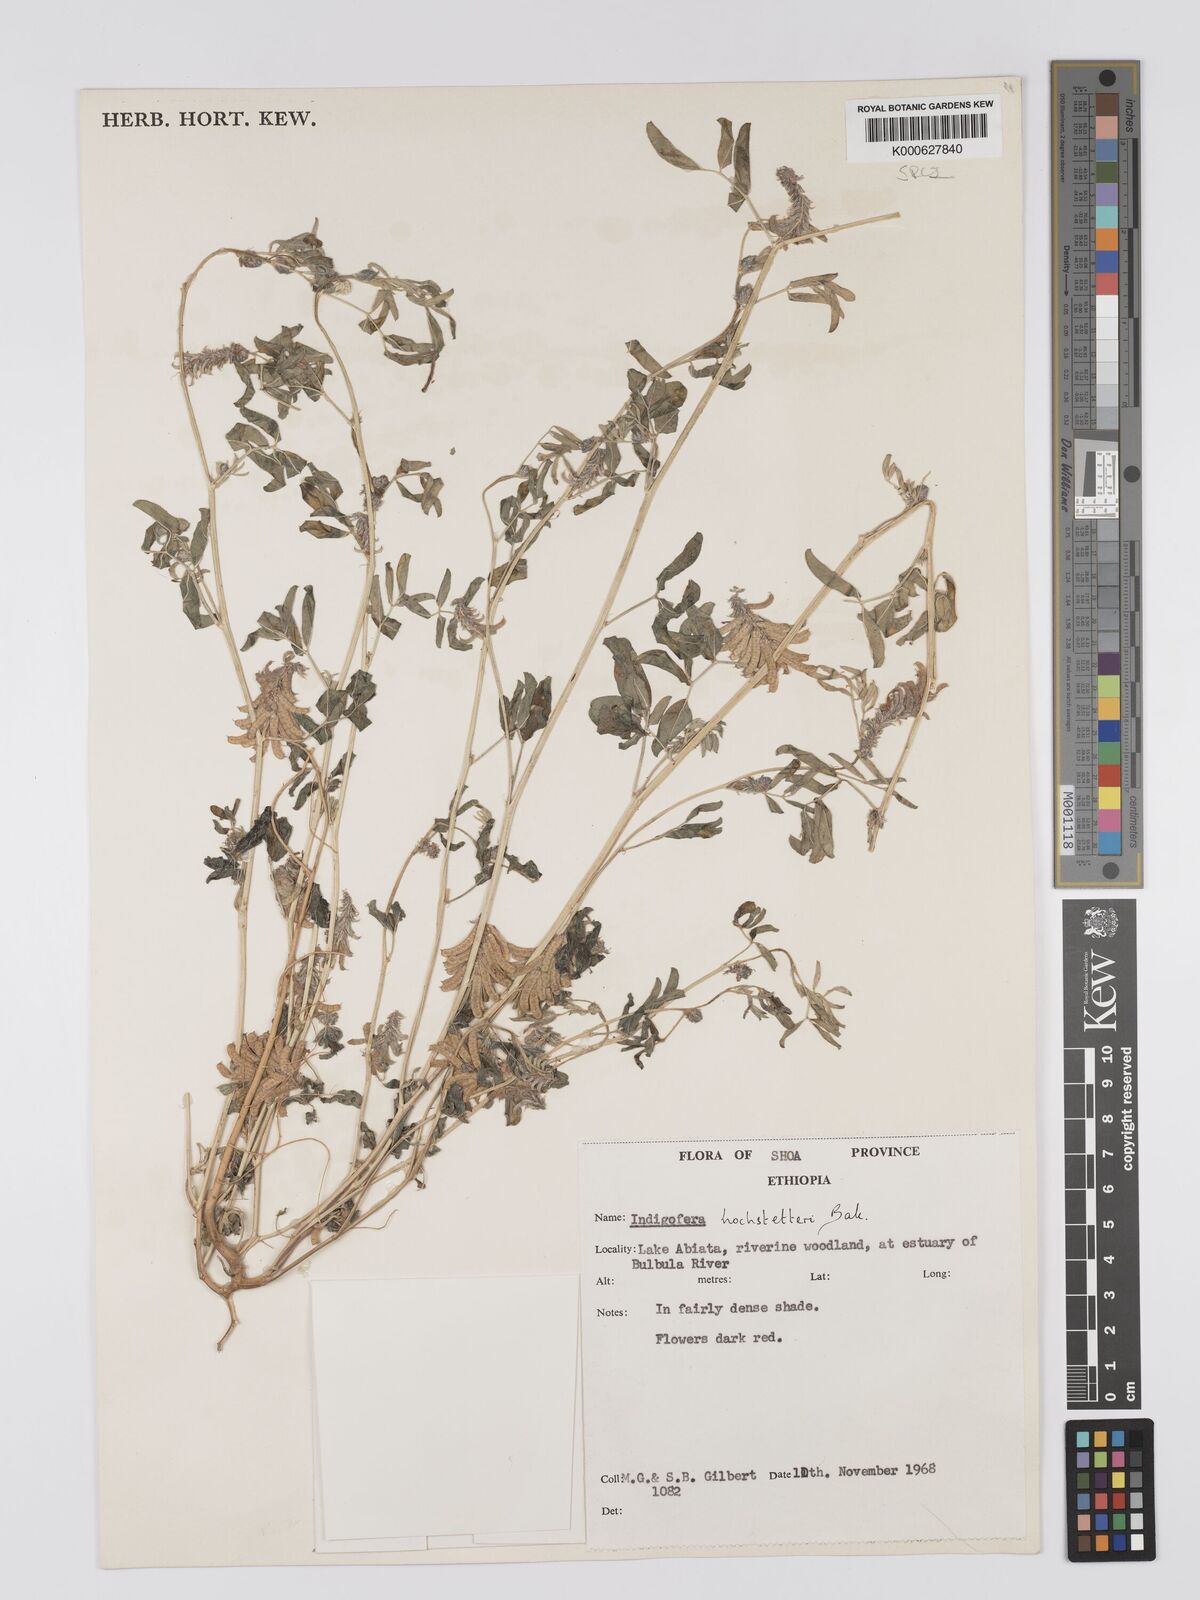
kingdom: Plantae
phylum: Tracheophyta
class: Magnoliopsida
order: Fabales
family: Fabaceae
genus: Indigofera
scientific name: Indigofera hochstetteri
